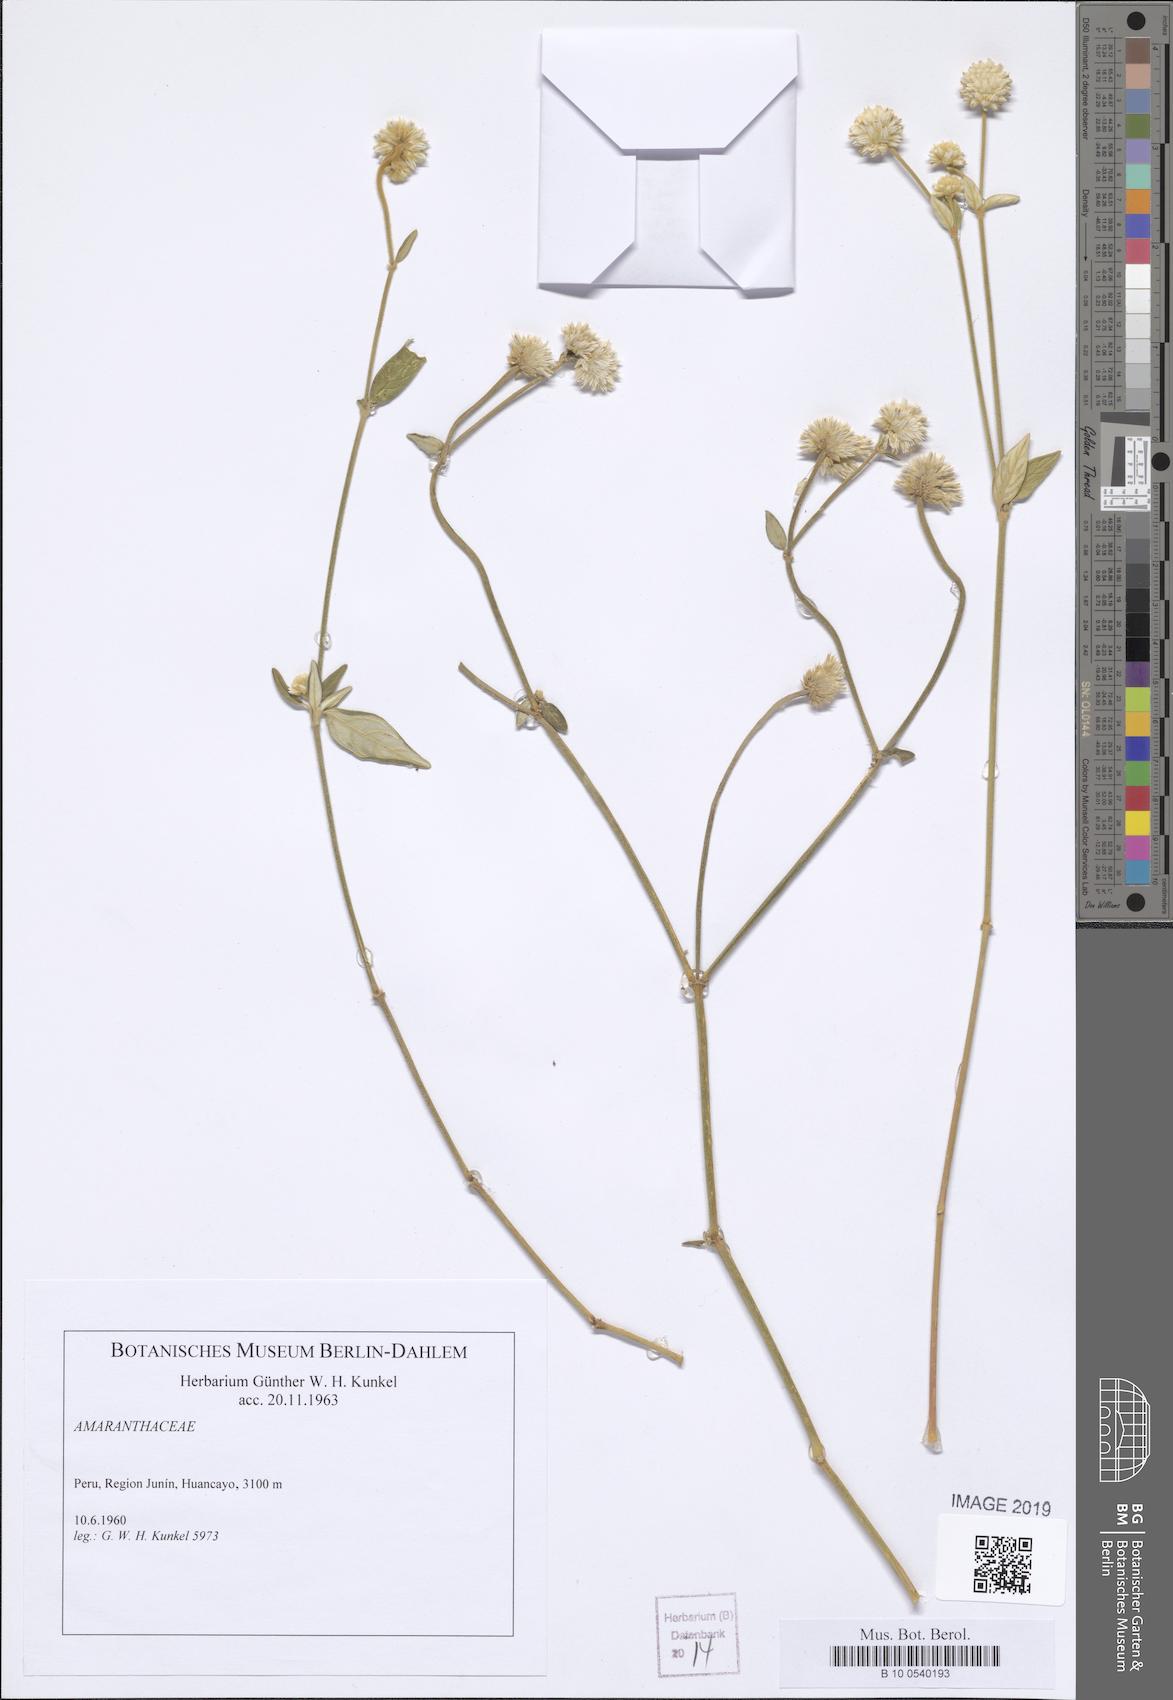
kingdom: Plantae
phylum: Tracheophyta
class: Magnoliopsida
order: Caryophyllales
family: Amaranthaceae
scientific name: Amaranthaceae
